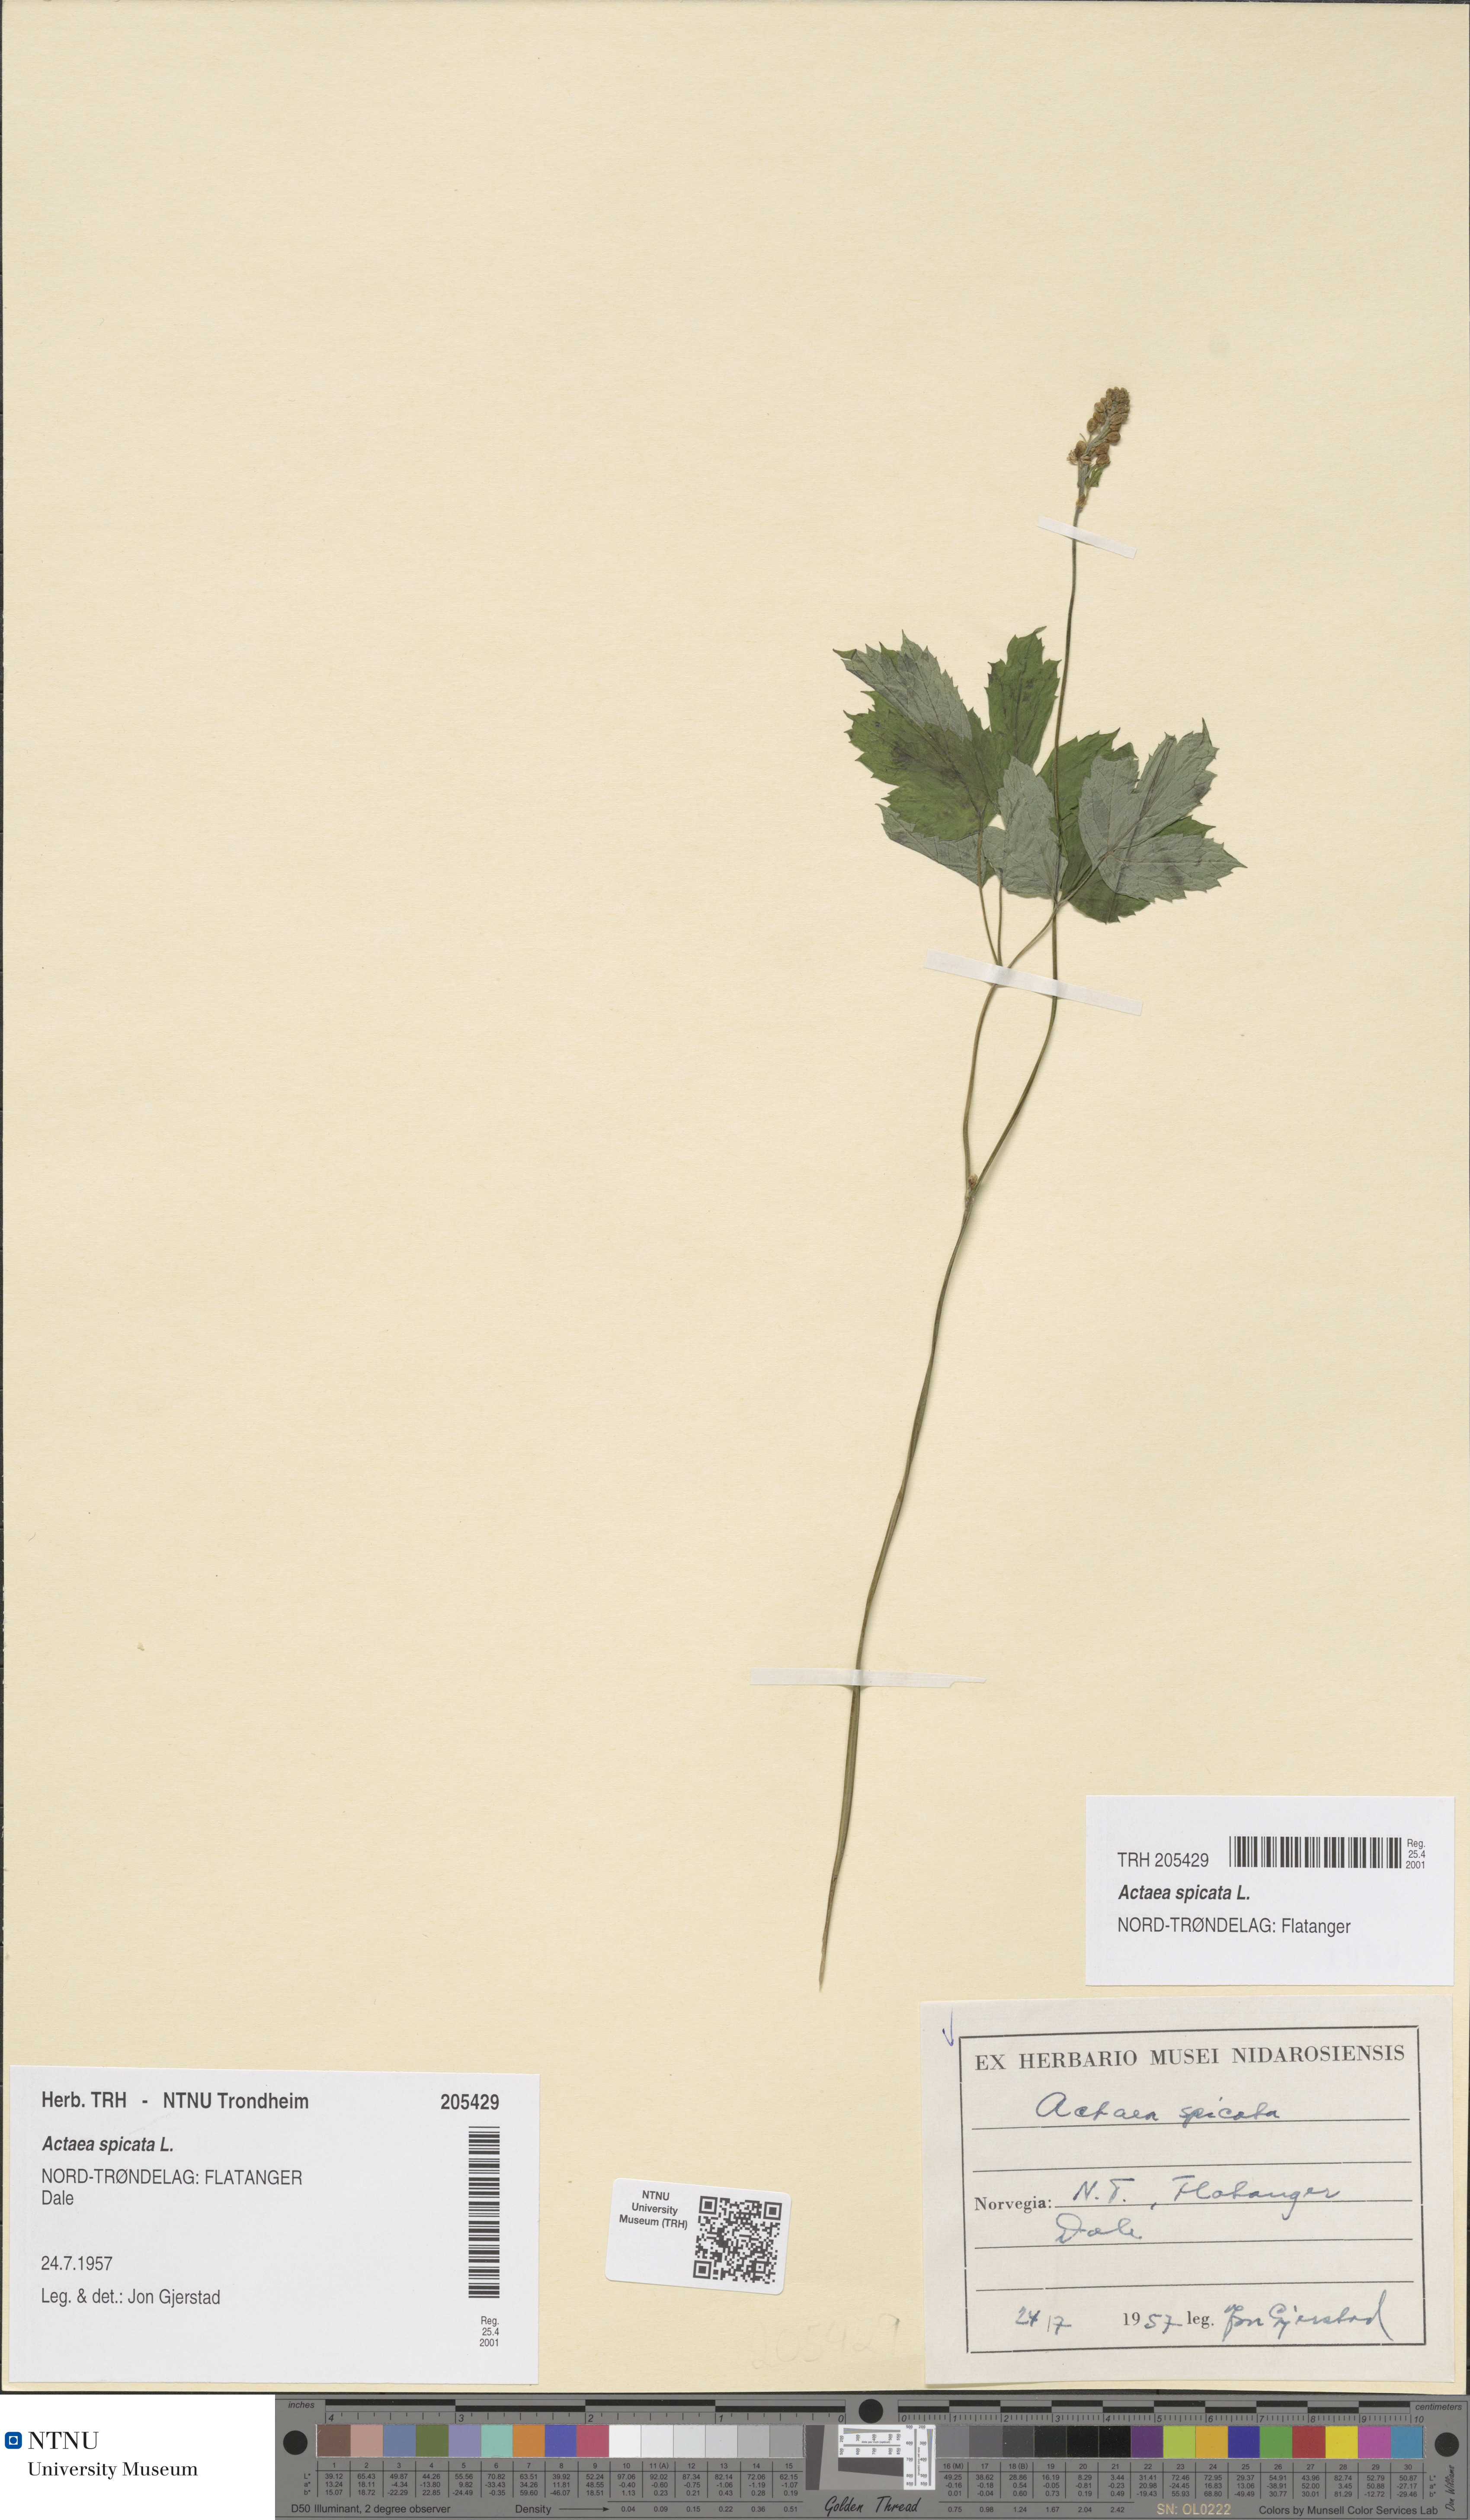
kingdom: Plantae
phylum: Tracheophyta
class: Magnoliopsida
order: Ranunculales
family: Ranunculaceae
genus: Actaea
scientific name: Actaea spicata
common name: Baneberry
